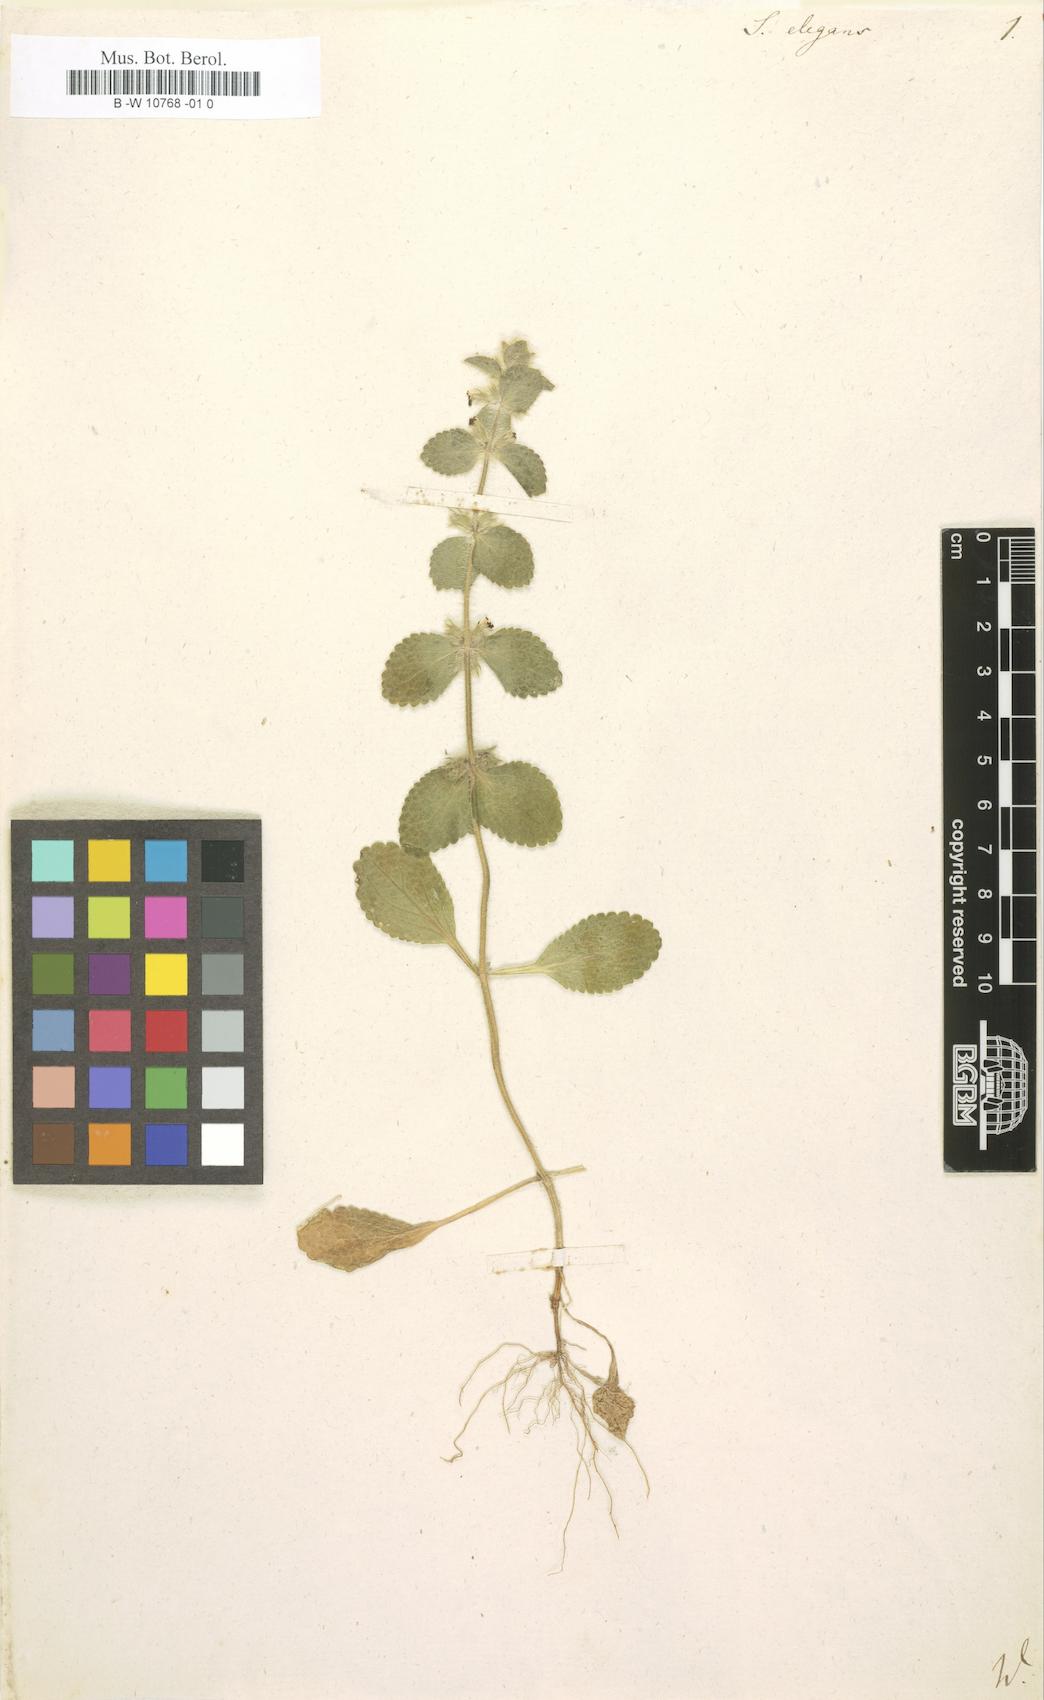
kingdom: Plantae
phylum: Tracheophyta
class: Magnoliopsida
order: Lamiales
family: Lamiaceae
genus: Sideritis
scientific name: Sideritis lanata
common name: Hairy ironwort
